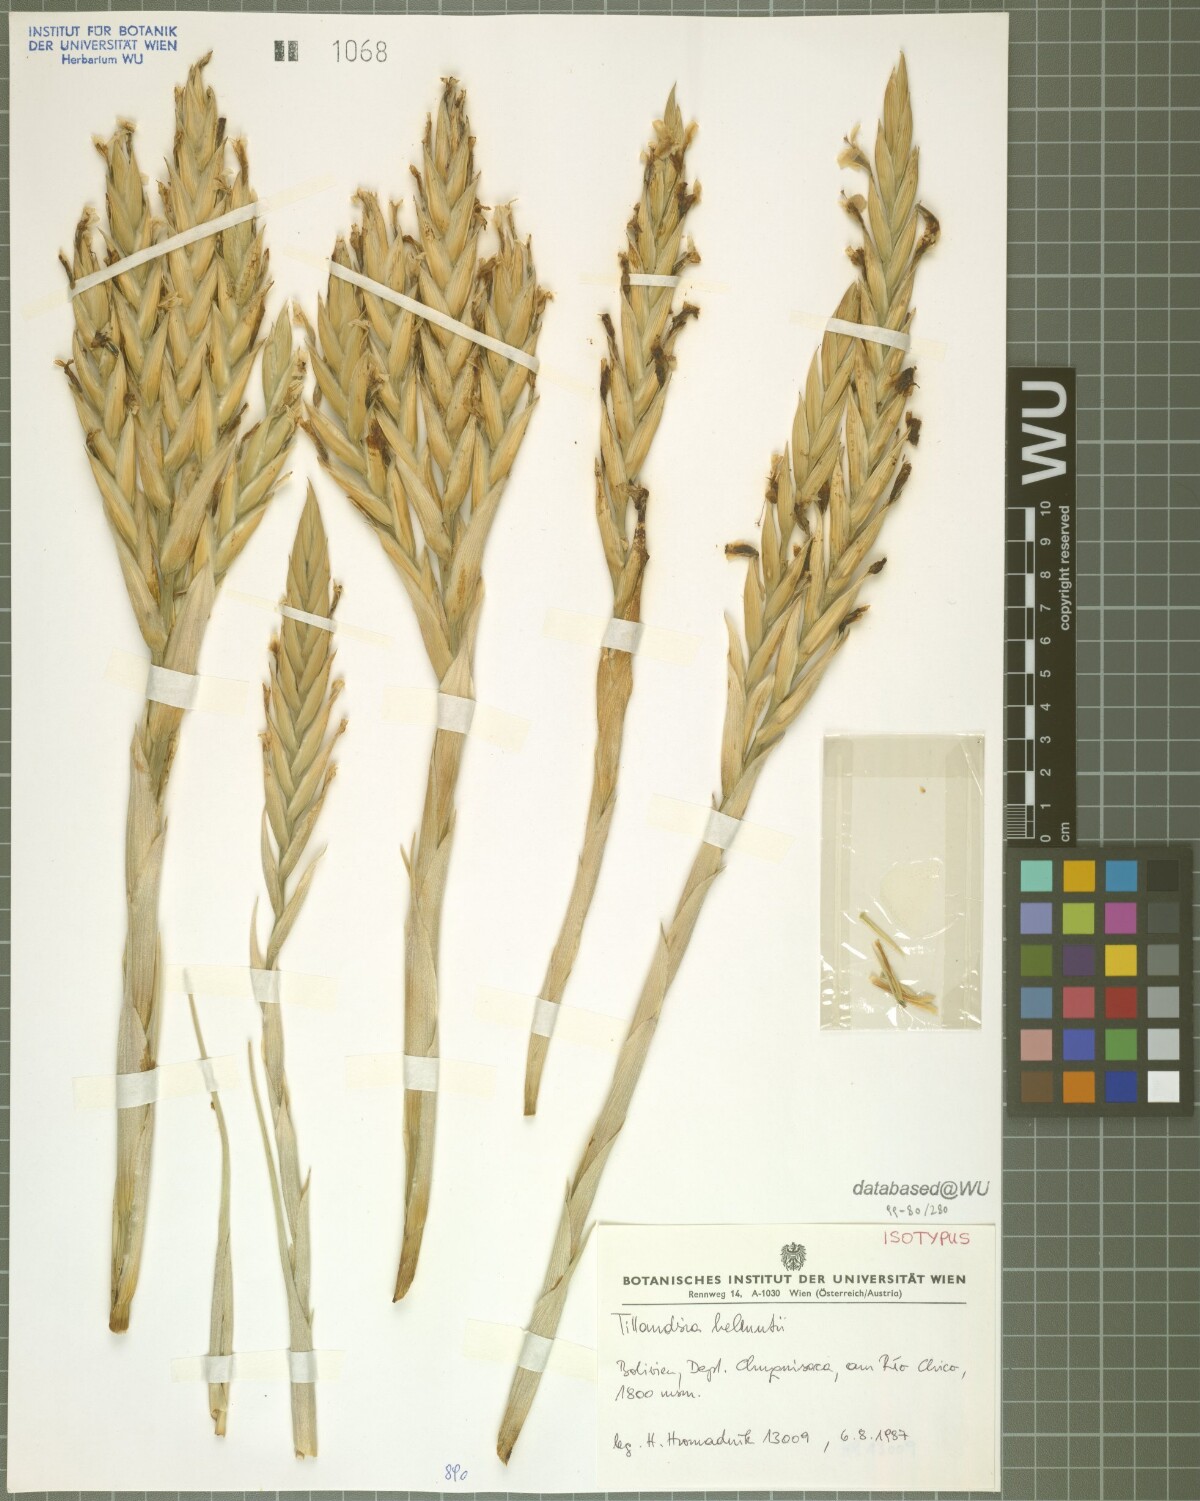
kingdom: Plantae
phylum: Tracheophyta
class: Liliopsida
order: Poales
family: Bromeliaceae
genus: Tillandsia
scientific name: Tillandsia helmutii
